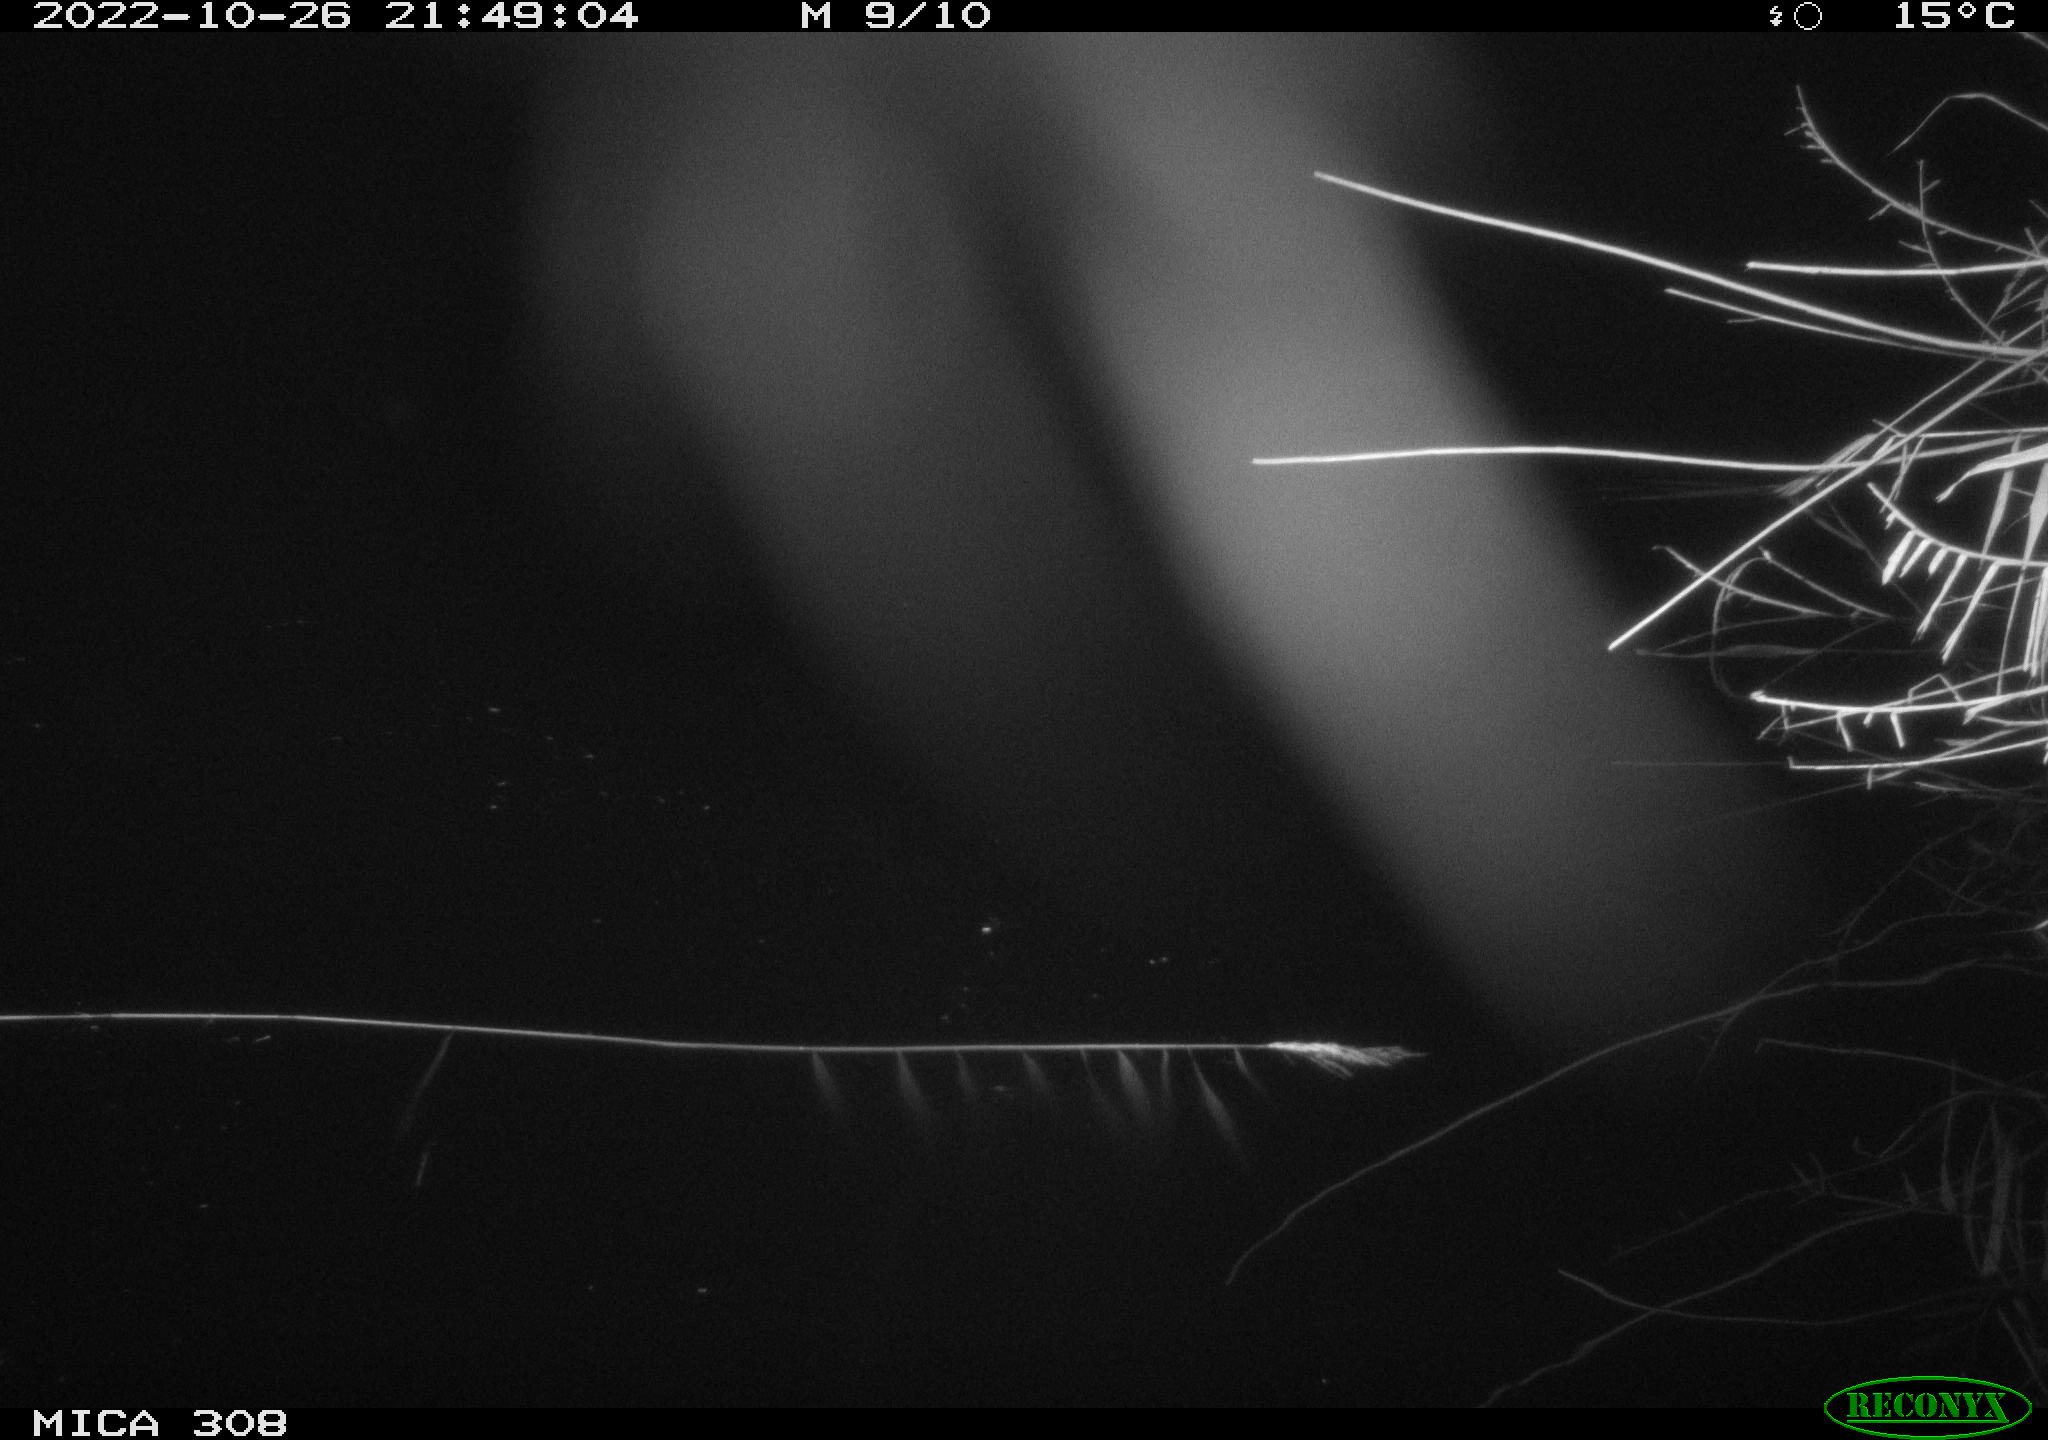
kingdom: Animalia
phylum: Chordata
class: Mammalia
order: Rodentia
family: Muridae
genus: Rattus
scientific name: Rattus norvegicus
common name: Brown rat
